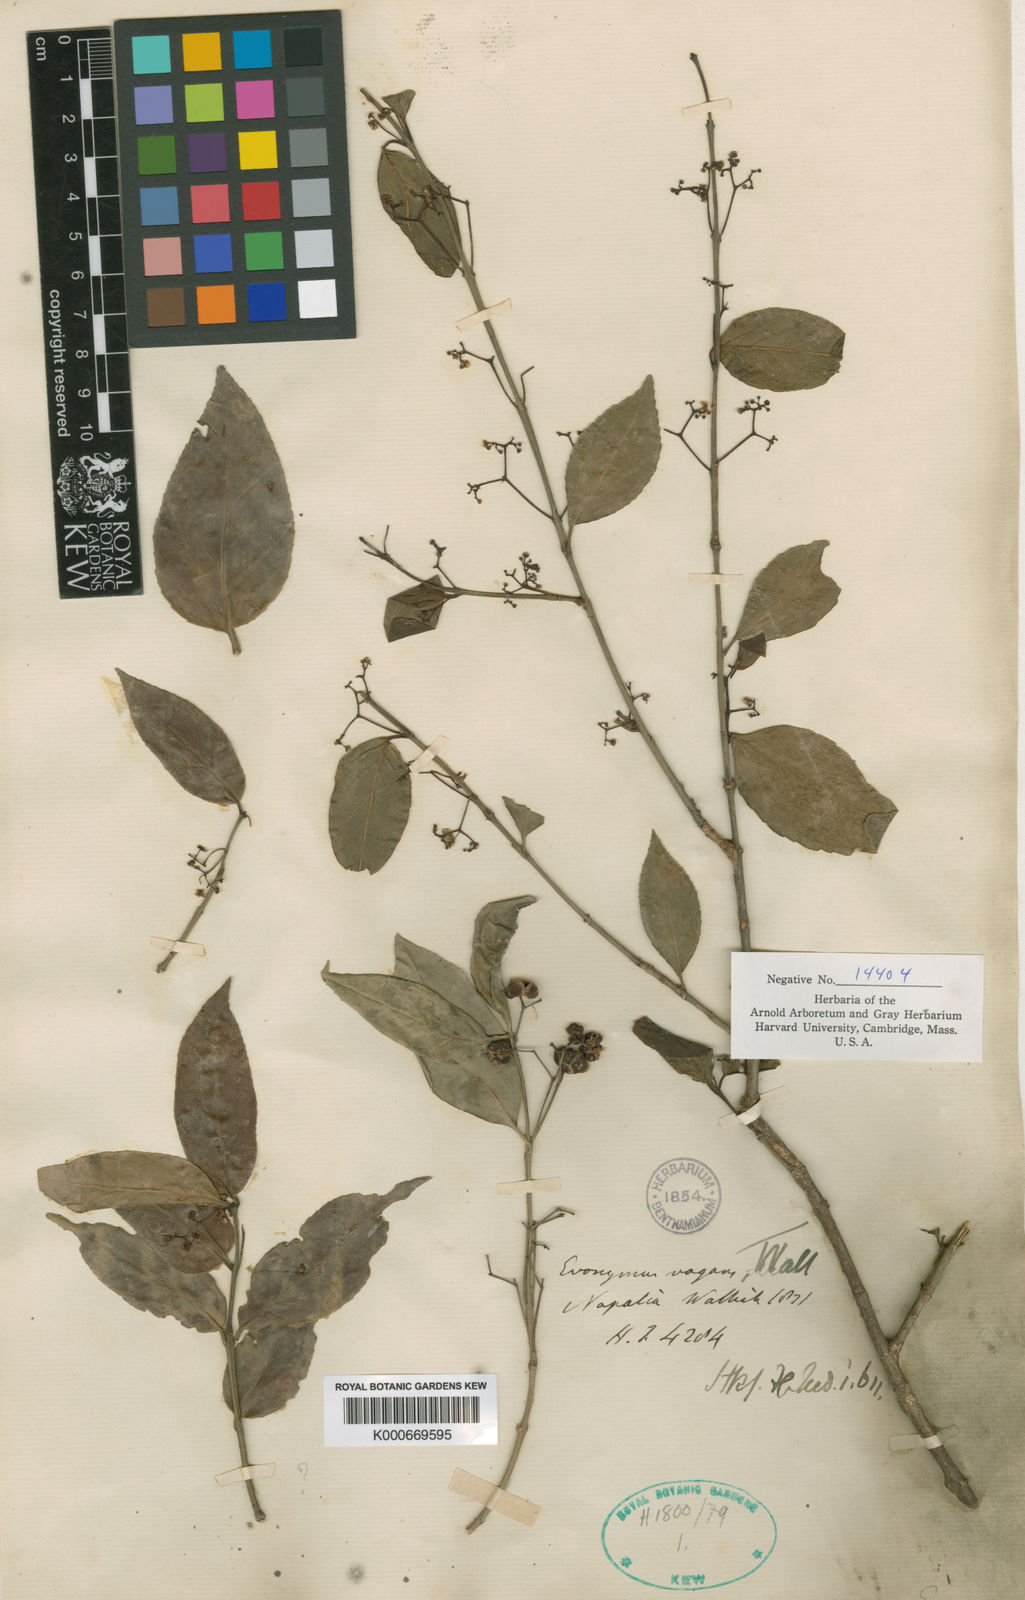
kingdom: Plantae
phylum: Tracheophyta
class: Magnoliopsida
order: Celastrales
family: Celastraceae
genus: Euonymus
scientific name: Euonymus vagans
